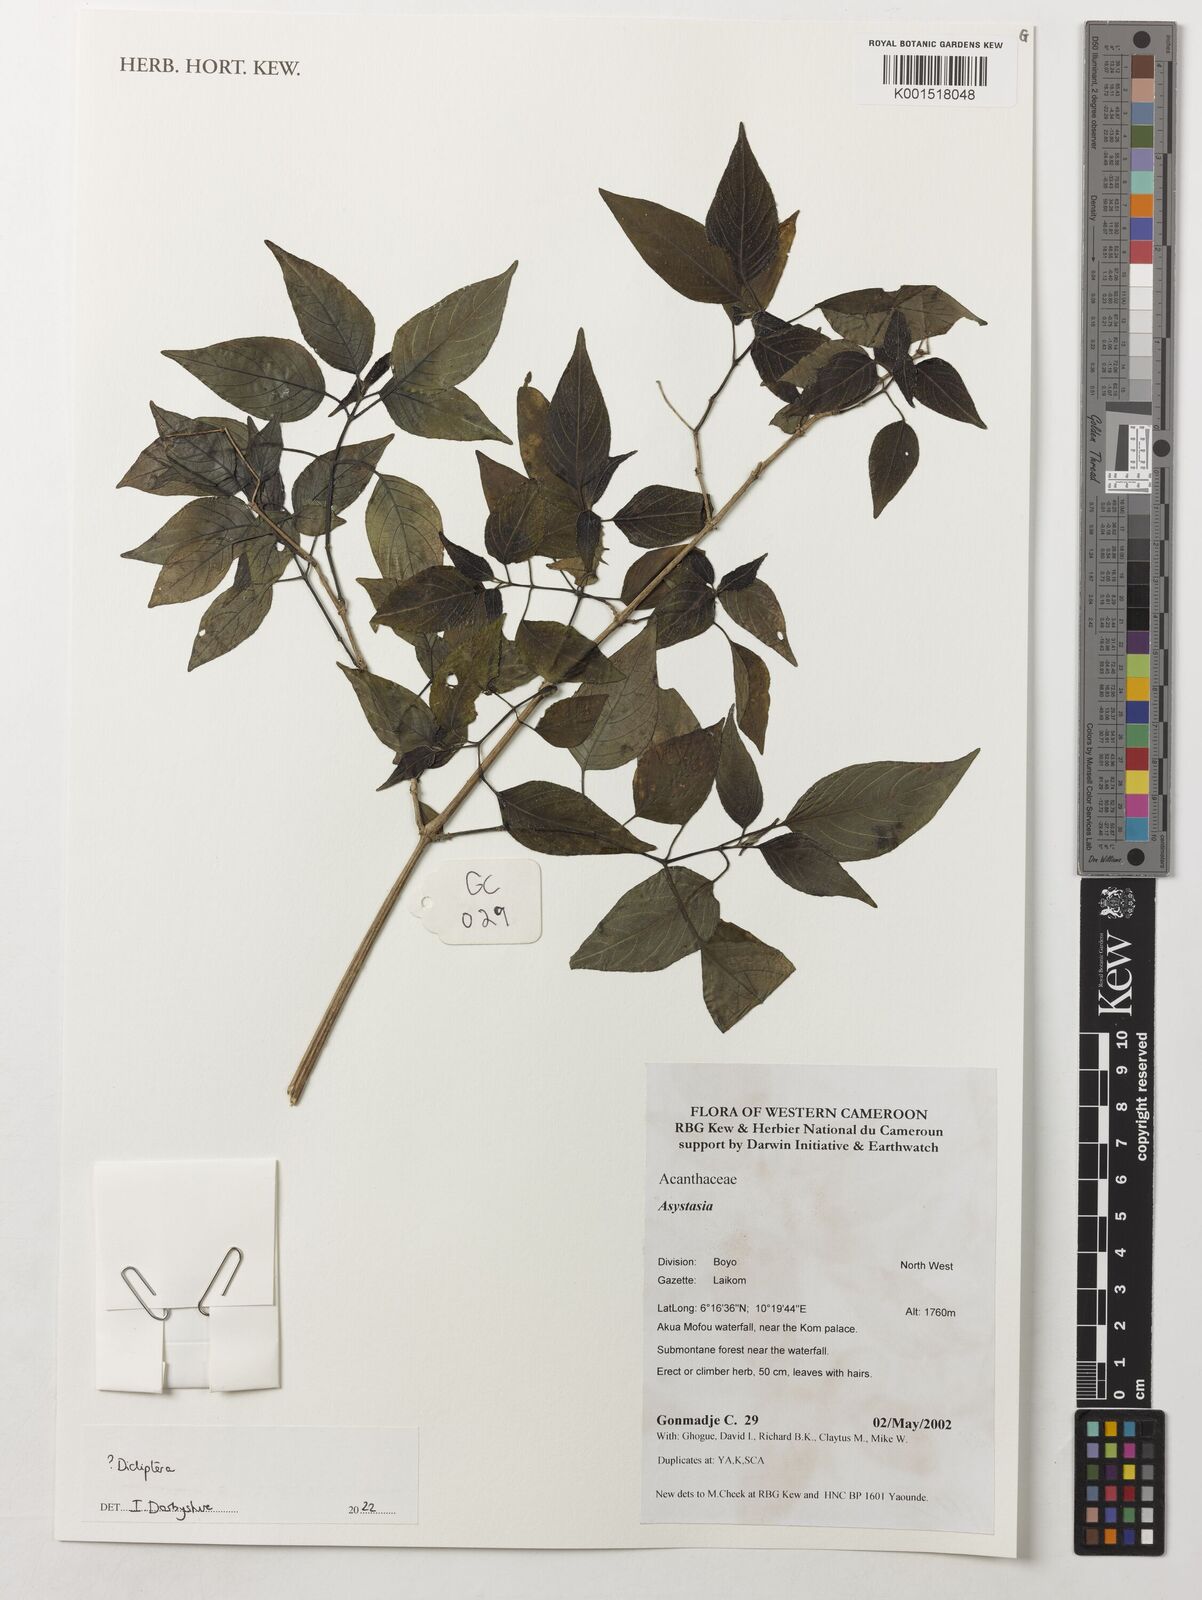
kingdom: Plantae
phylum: Tracheophyta
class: Magnoliopsida
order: Lamiales
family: Acanthaceae
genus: Asystasia
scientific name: Asystasia
